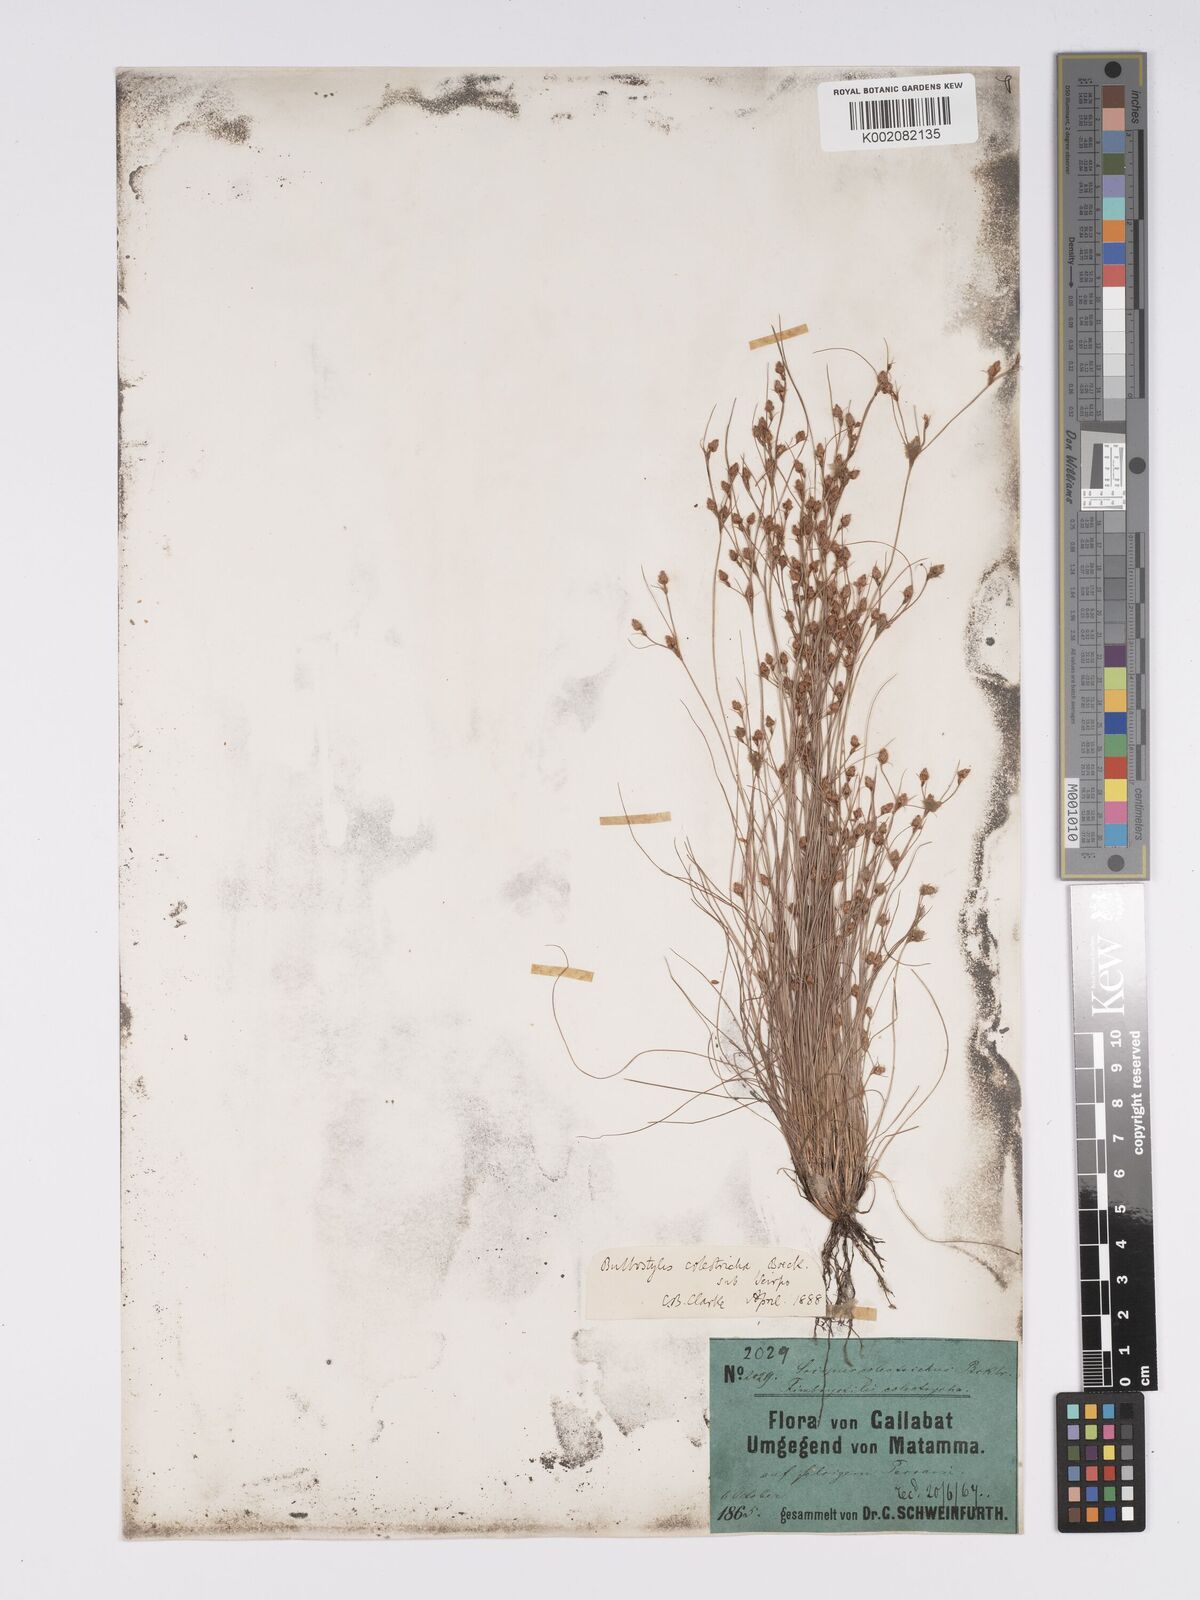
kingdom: Plantae
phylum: Tracheophyta
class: Liliopsida
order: Poales
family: Cyperaceae
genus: Bulbostylis
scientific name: Bulbostylis coleotricha
